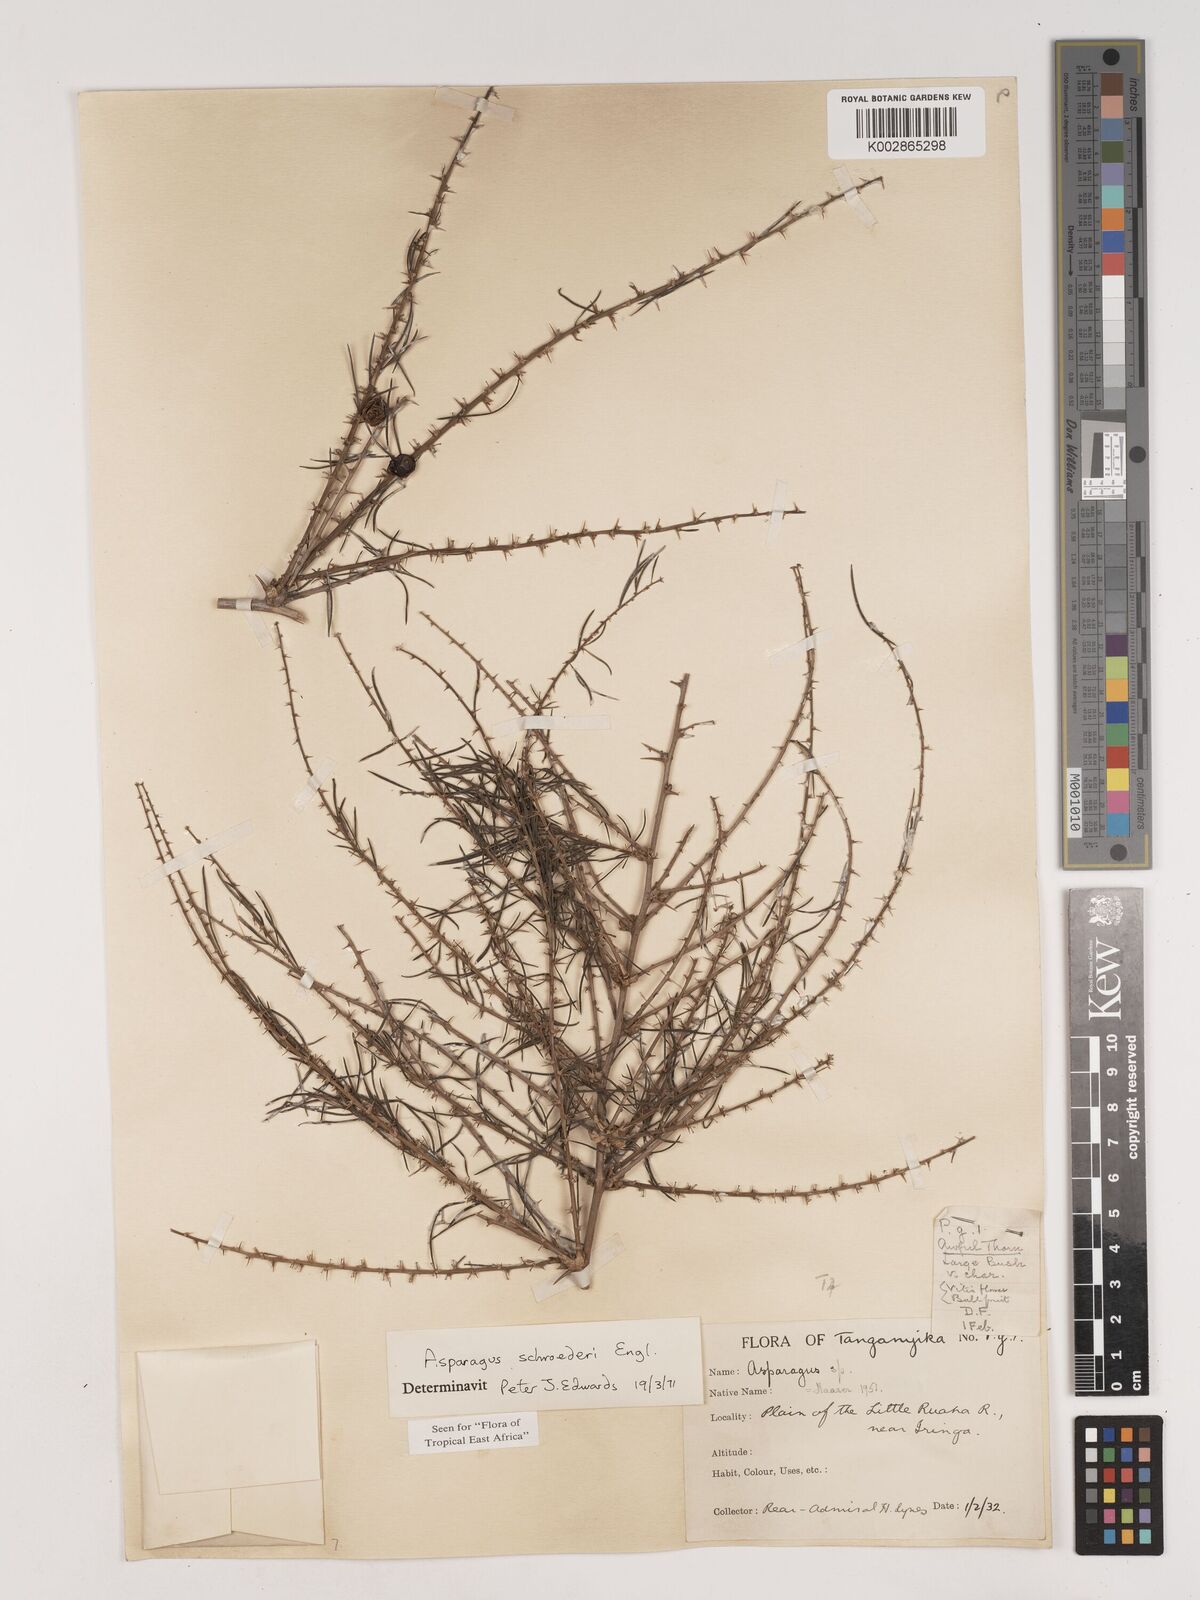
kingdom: Plantae
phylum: Tracheophyta
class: Liliopsida
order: Asparagales
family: Asparagaceae
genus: Asparagus
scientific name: Asparagus schroederi
